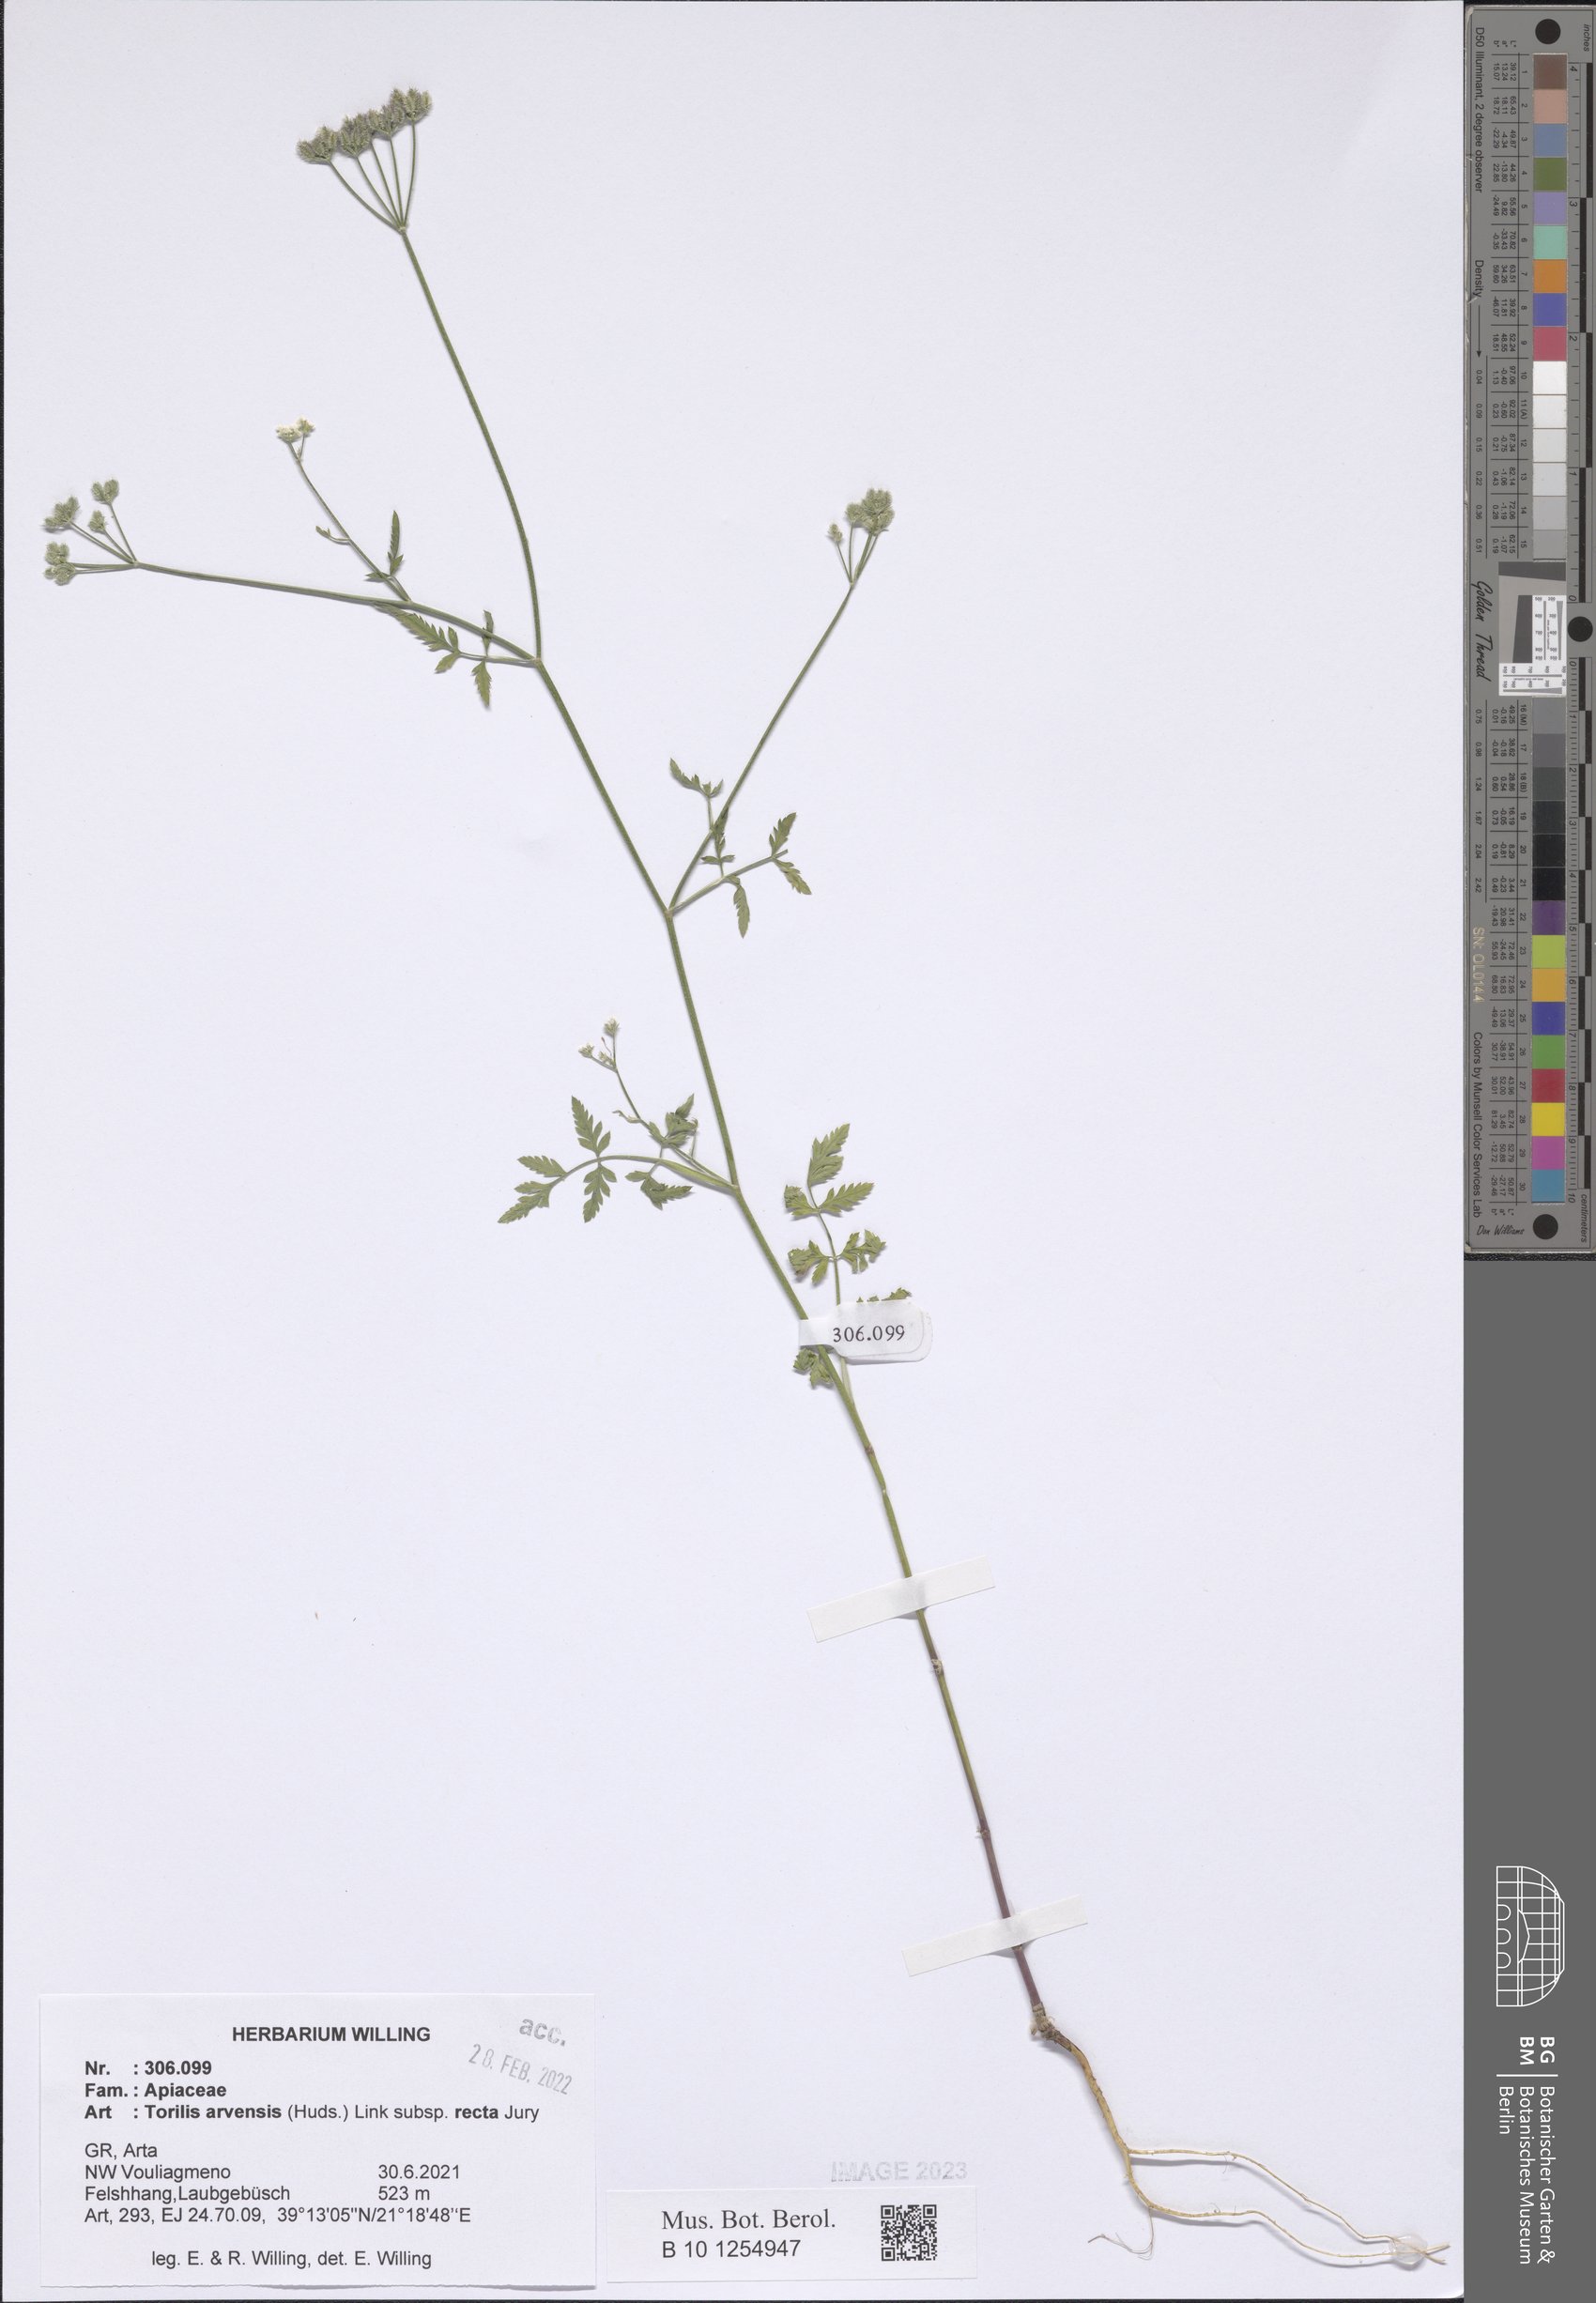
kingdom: Plantae
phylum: Tracheophyta
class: Magnoliopsida
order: Apiales
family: Apiaceae
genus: Torilis
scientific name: Torilis arvensis
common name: Spreading hedge-parsley
